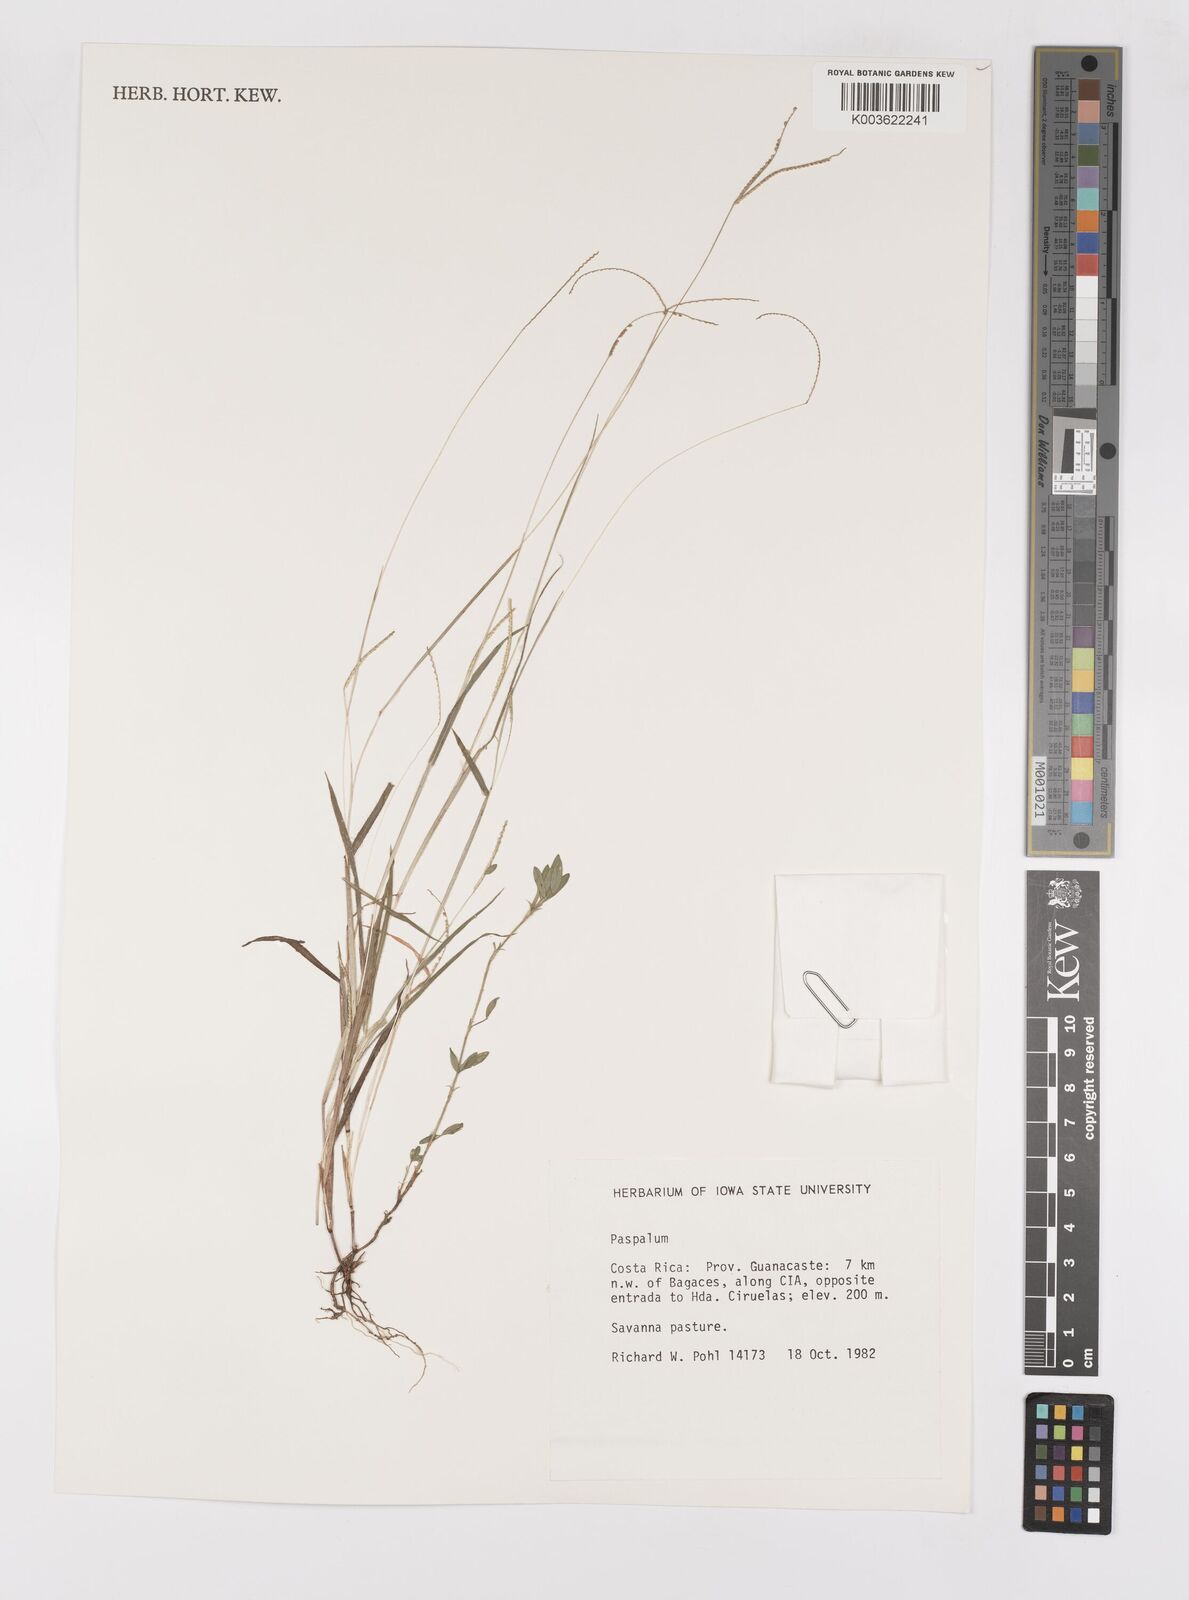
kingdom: Plantae
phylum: Tracheophyta
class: Liliopsida
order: Poales
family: Poaceae
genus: Paspalum
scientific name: Paspalum
